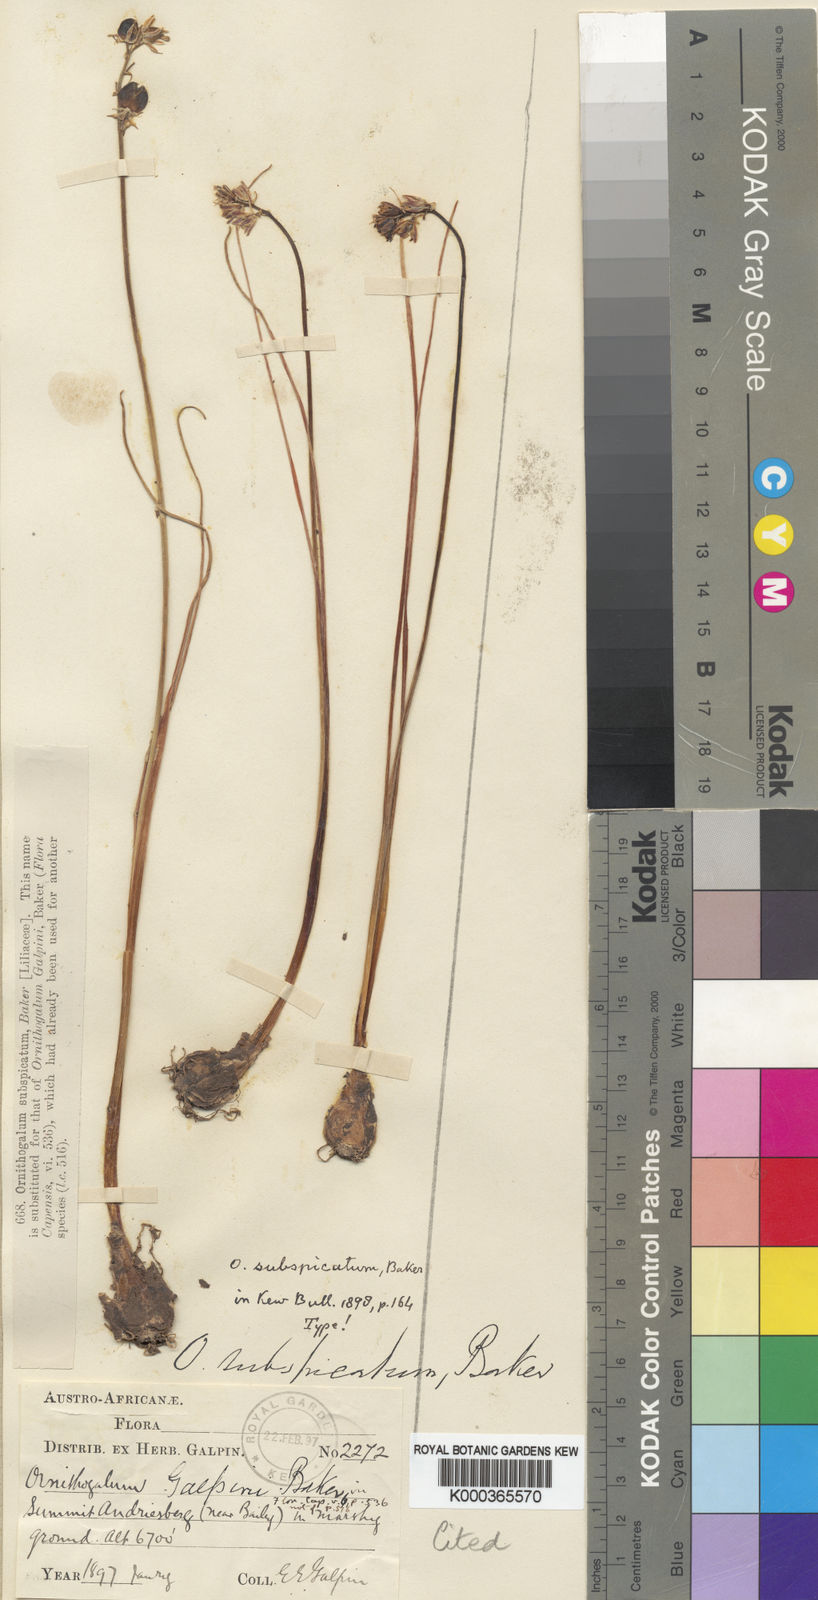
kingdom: Plantae
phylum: Tracheophyta
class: Liliopsida
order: Asparagales
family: Asparagaceae
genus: Ornithogalum
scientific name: Ornithogalum
